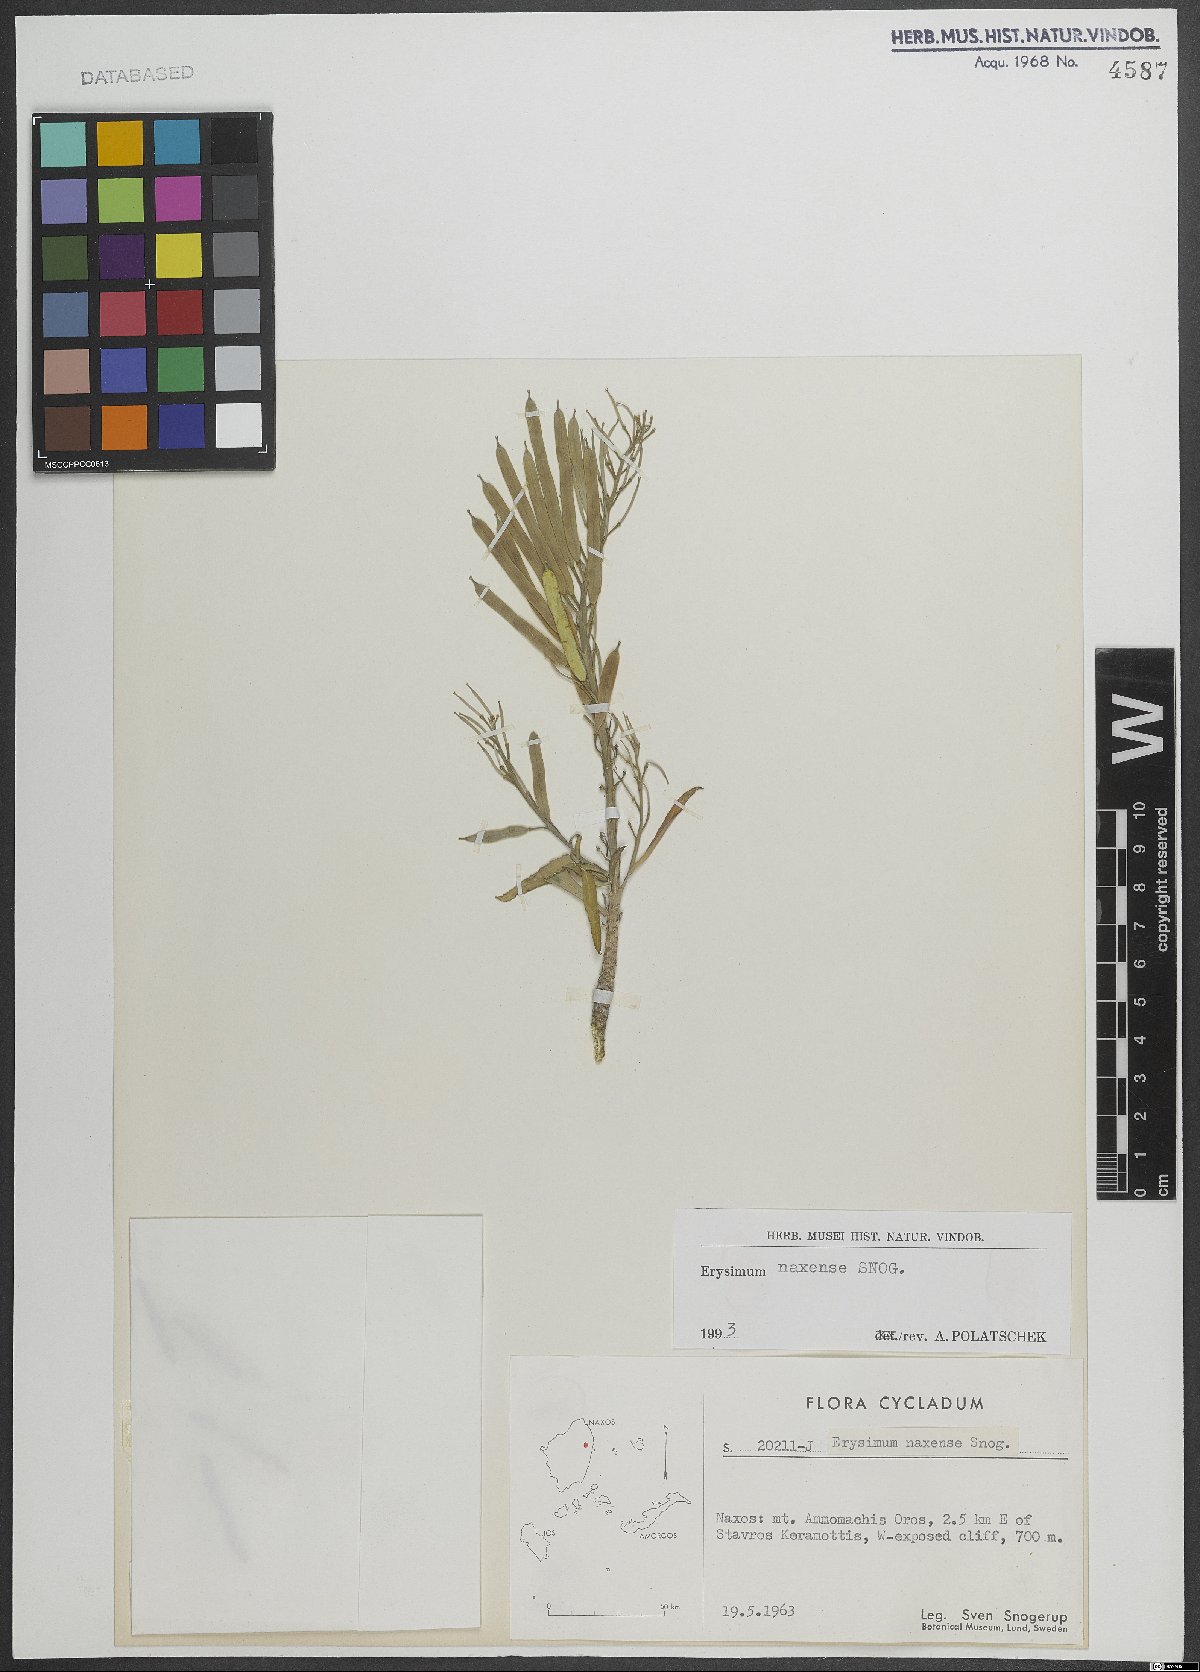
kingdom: Plantae
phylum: Tracheophyta
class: Magnoliopsida
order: Brassicales
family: Brassicaceae
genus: Erysimum
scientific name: Erysimum naxense
